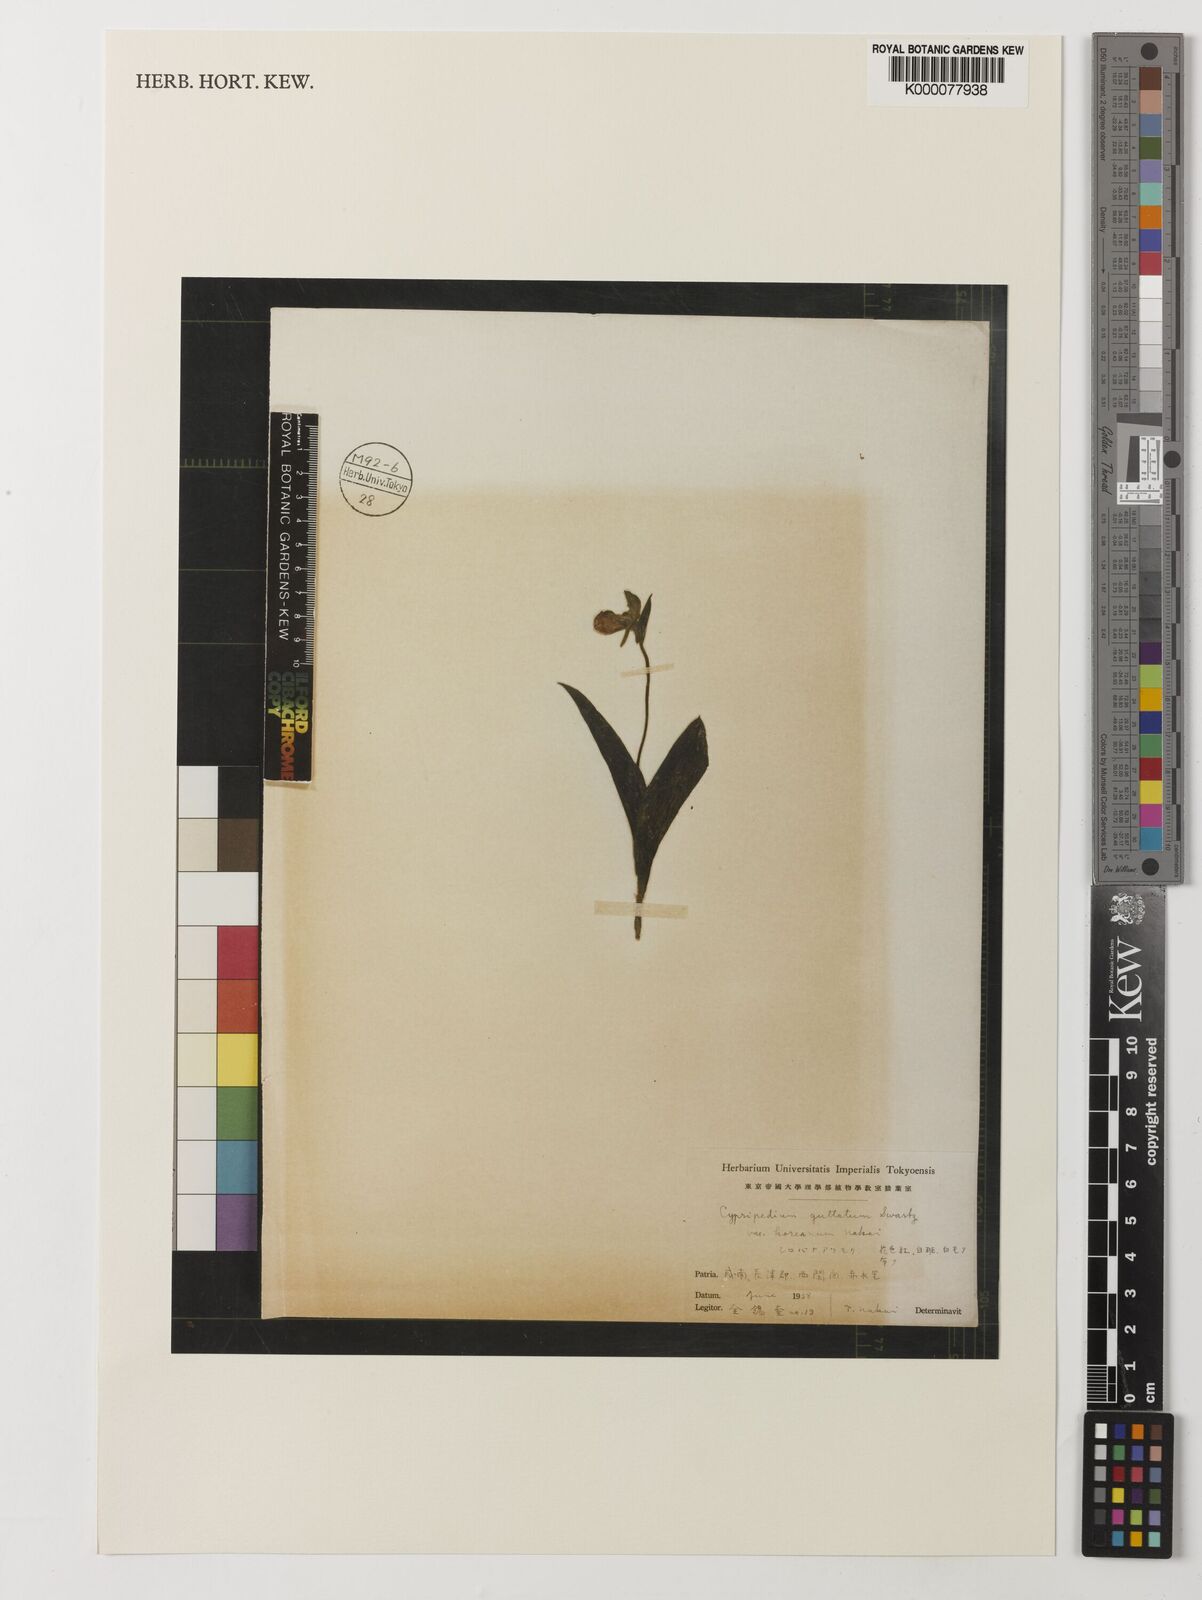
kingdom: Plantae
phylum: Tracheophyta
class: Liliopsida
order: Asparagales
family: Orchidaceae
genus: Cypripedium
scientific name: Cypripedium guttatum
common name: Pink lady slipper
